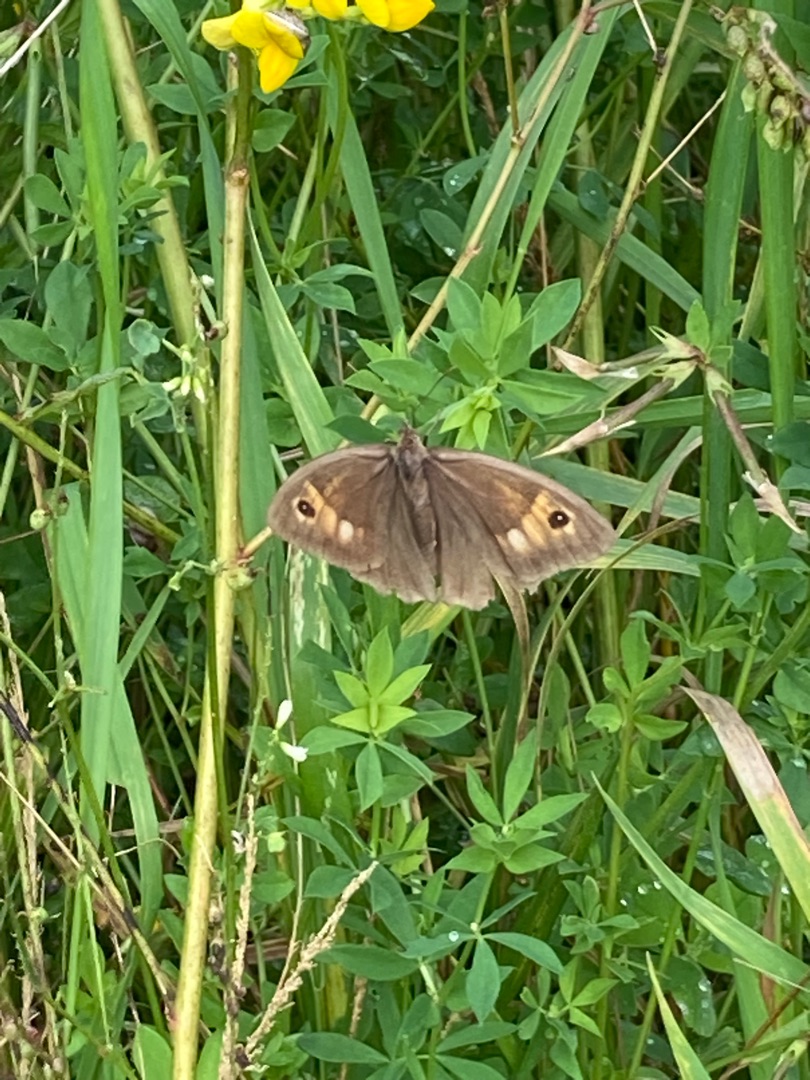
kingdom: Animalia
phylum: Arthropoda
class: Insecta
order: Lepidoptera
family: Nymphalidae
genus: Maniola
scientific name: Maniola jurtina
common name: Græsrandøje
